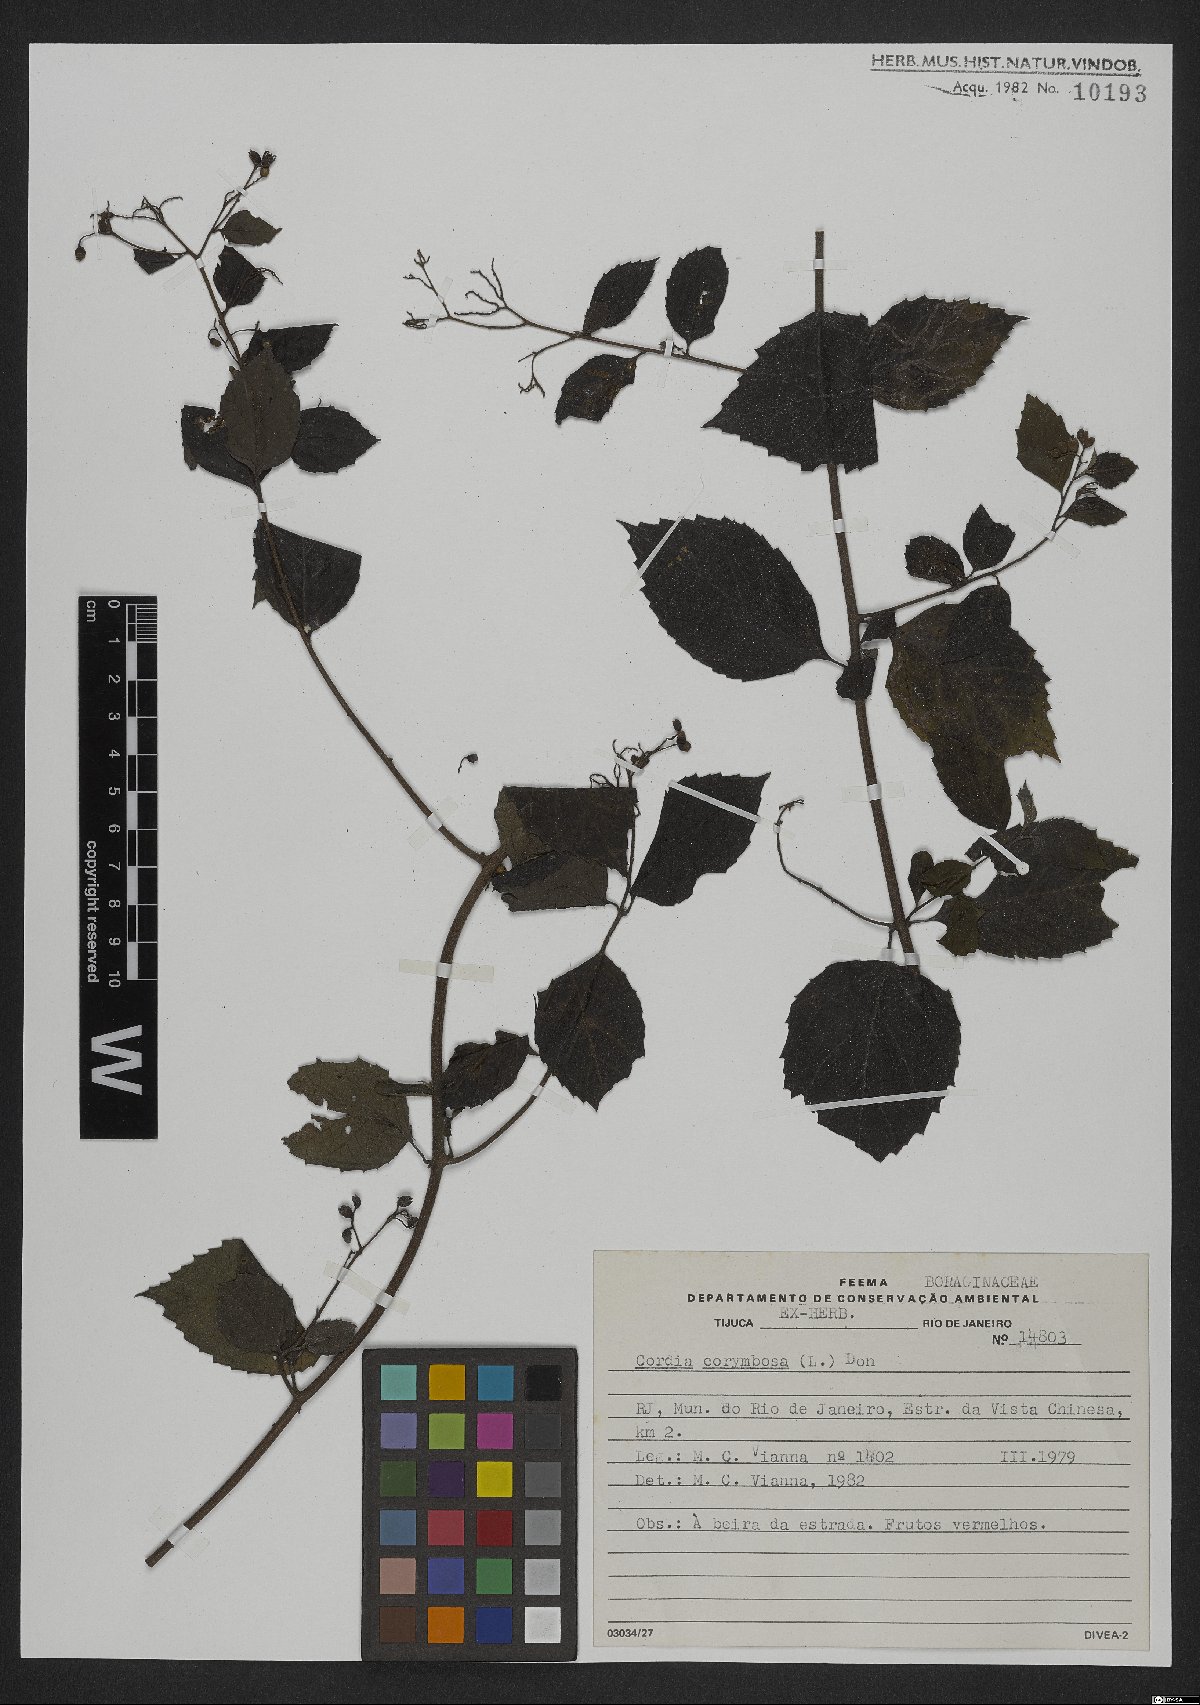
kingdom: Plantae
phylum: Tracheophyta
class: Magnoliopsida
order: Boraginales
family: Cordiaceae
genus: Varronia
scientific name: Varronia polycephala
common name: Black-sage
